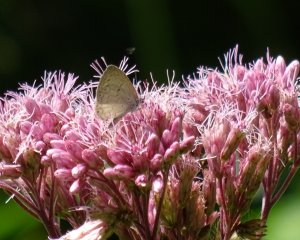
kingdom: Animalia
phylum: Arthropoda
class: Insecta
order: Lepidoptera
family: Lycaenidae
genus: Cyaniris
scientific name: Cyaniris neglecta
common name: Summer Azure
